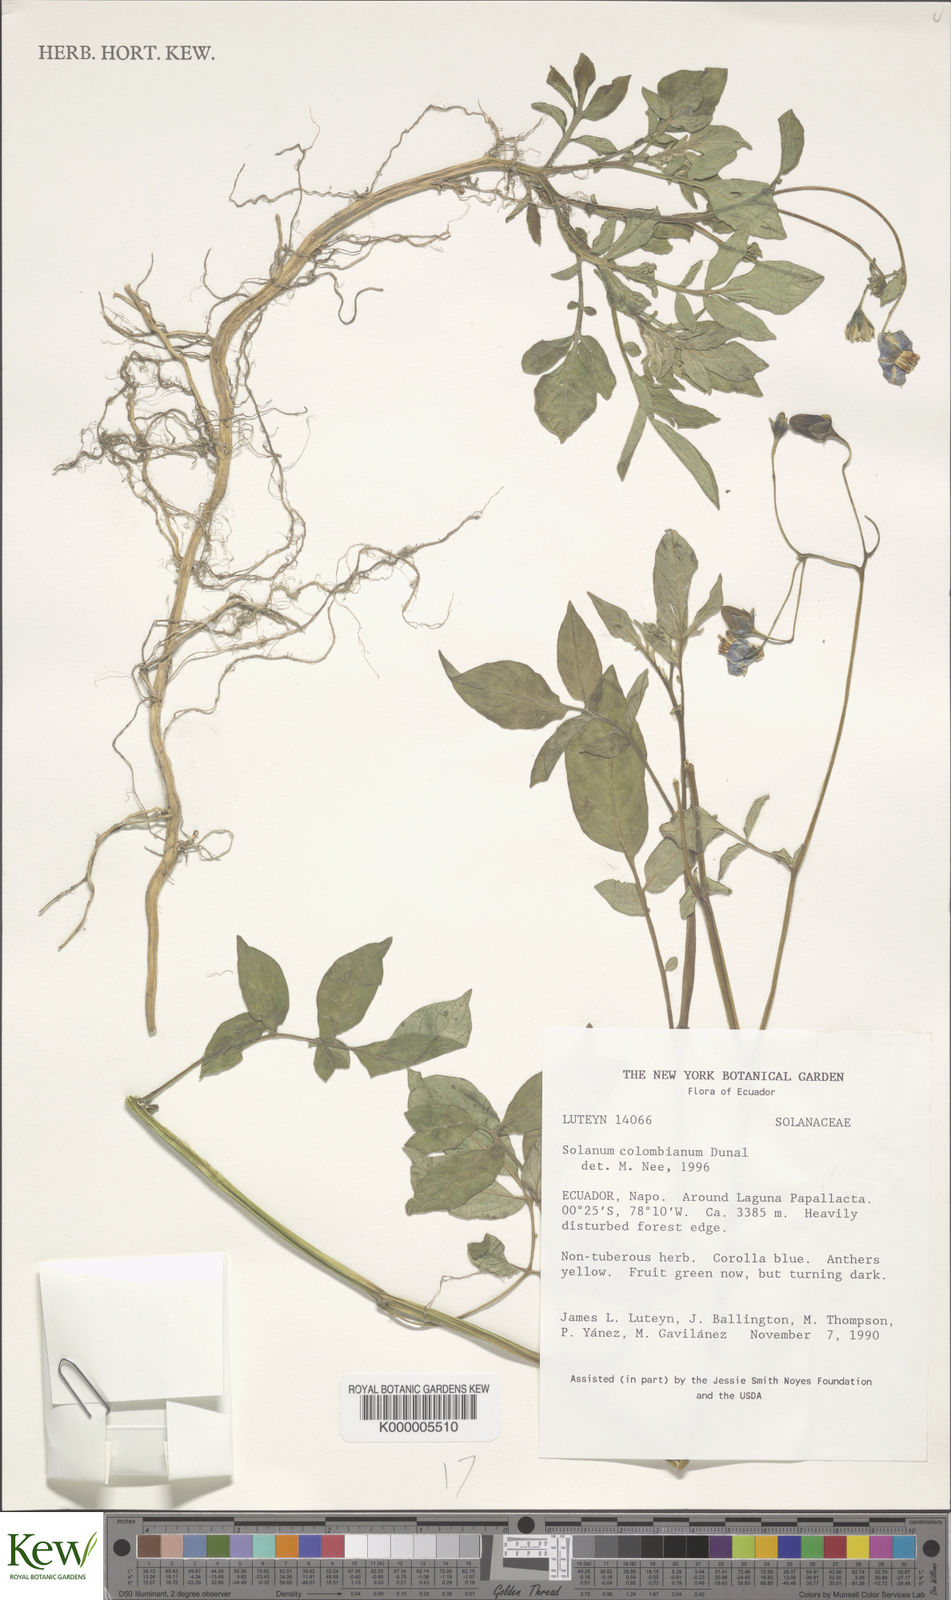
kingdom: Plantae
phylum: Tracheophyta
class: Magnoliopsida
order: Solanales
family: Solanaceae
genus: Solanum
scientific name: Solanum lobbianum
